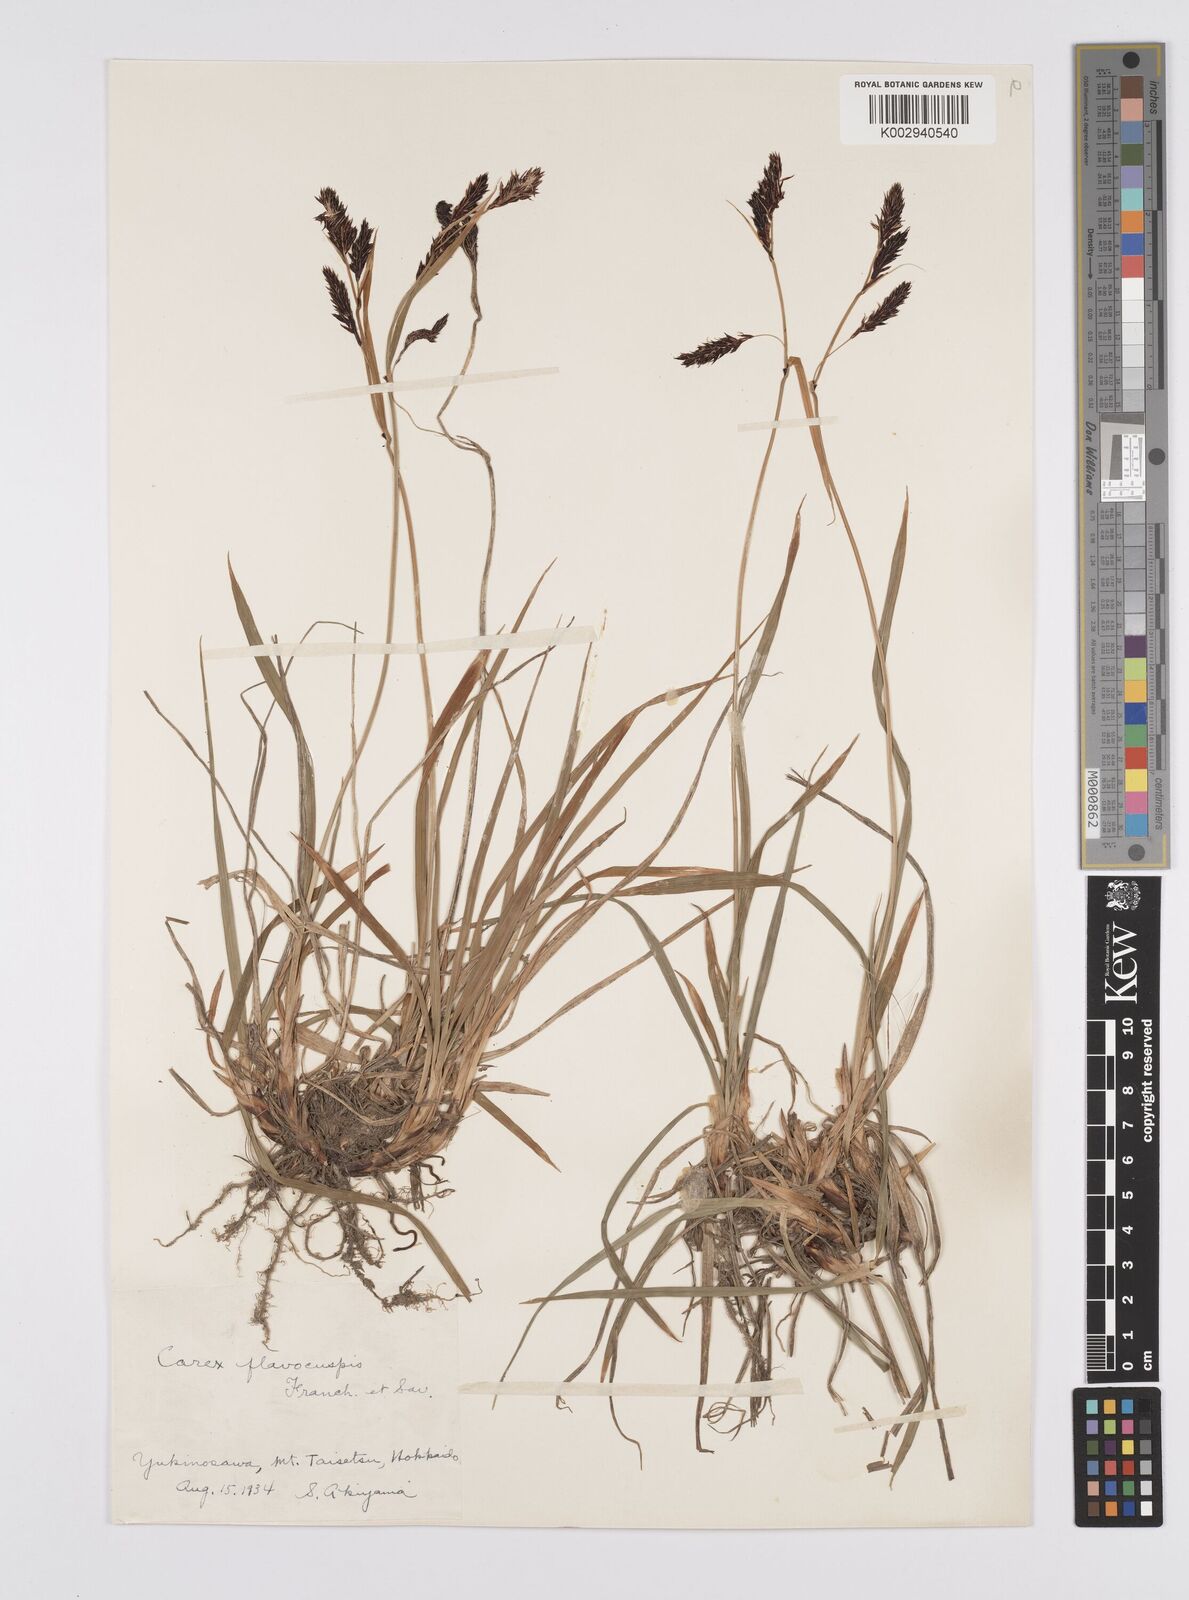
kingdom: Plantae
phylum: Tracheophyta
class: Liliopsida
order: Poales
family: Cyperaceae
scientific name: Cyperaceae
